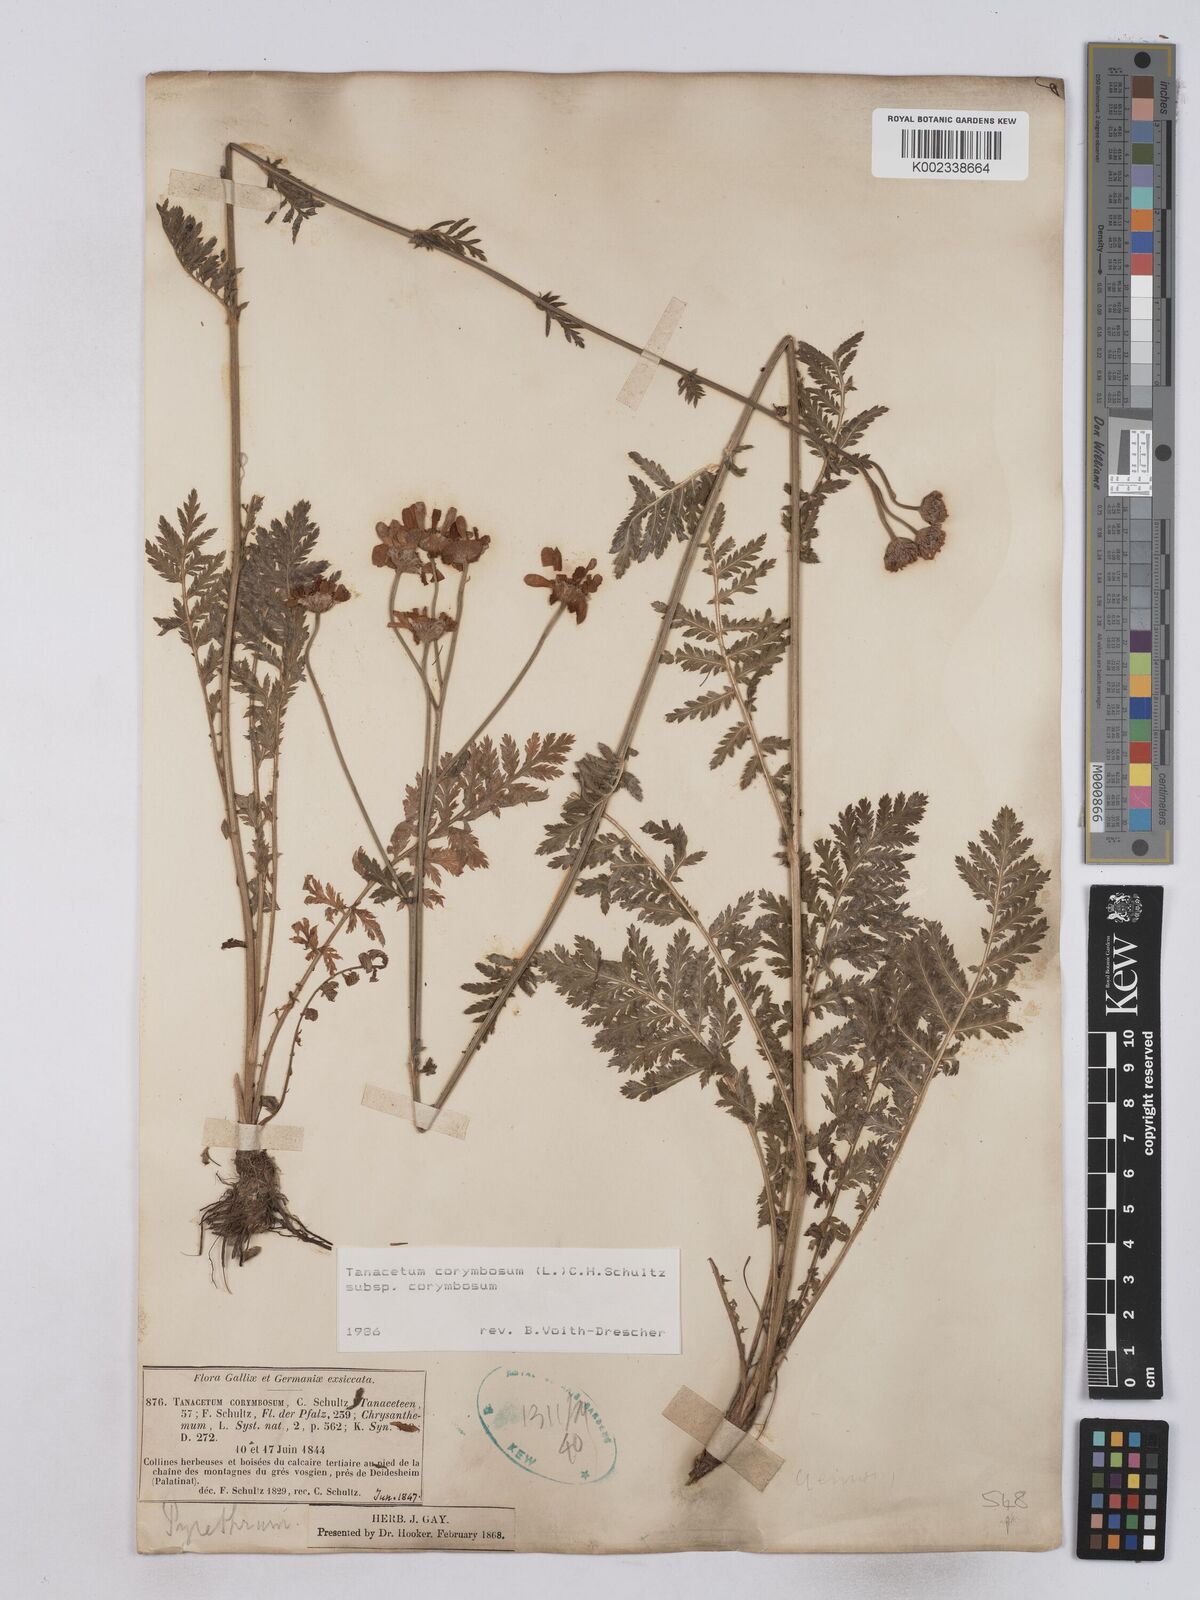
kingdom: Plantae
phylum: Tracheophyta
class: Magnoliopsida
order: Asterales
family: Asteraceae
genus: Tanacetum
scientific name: Tanacetum corymbosum
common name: Scentless feverfew
